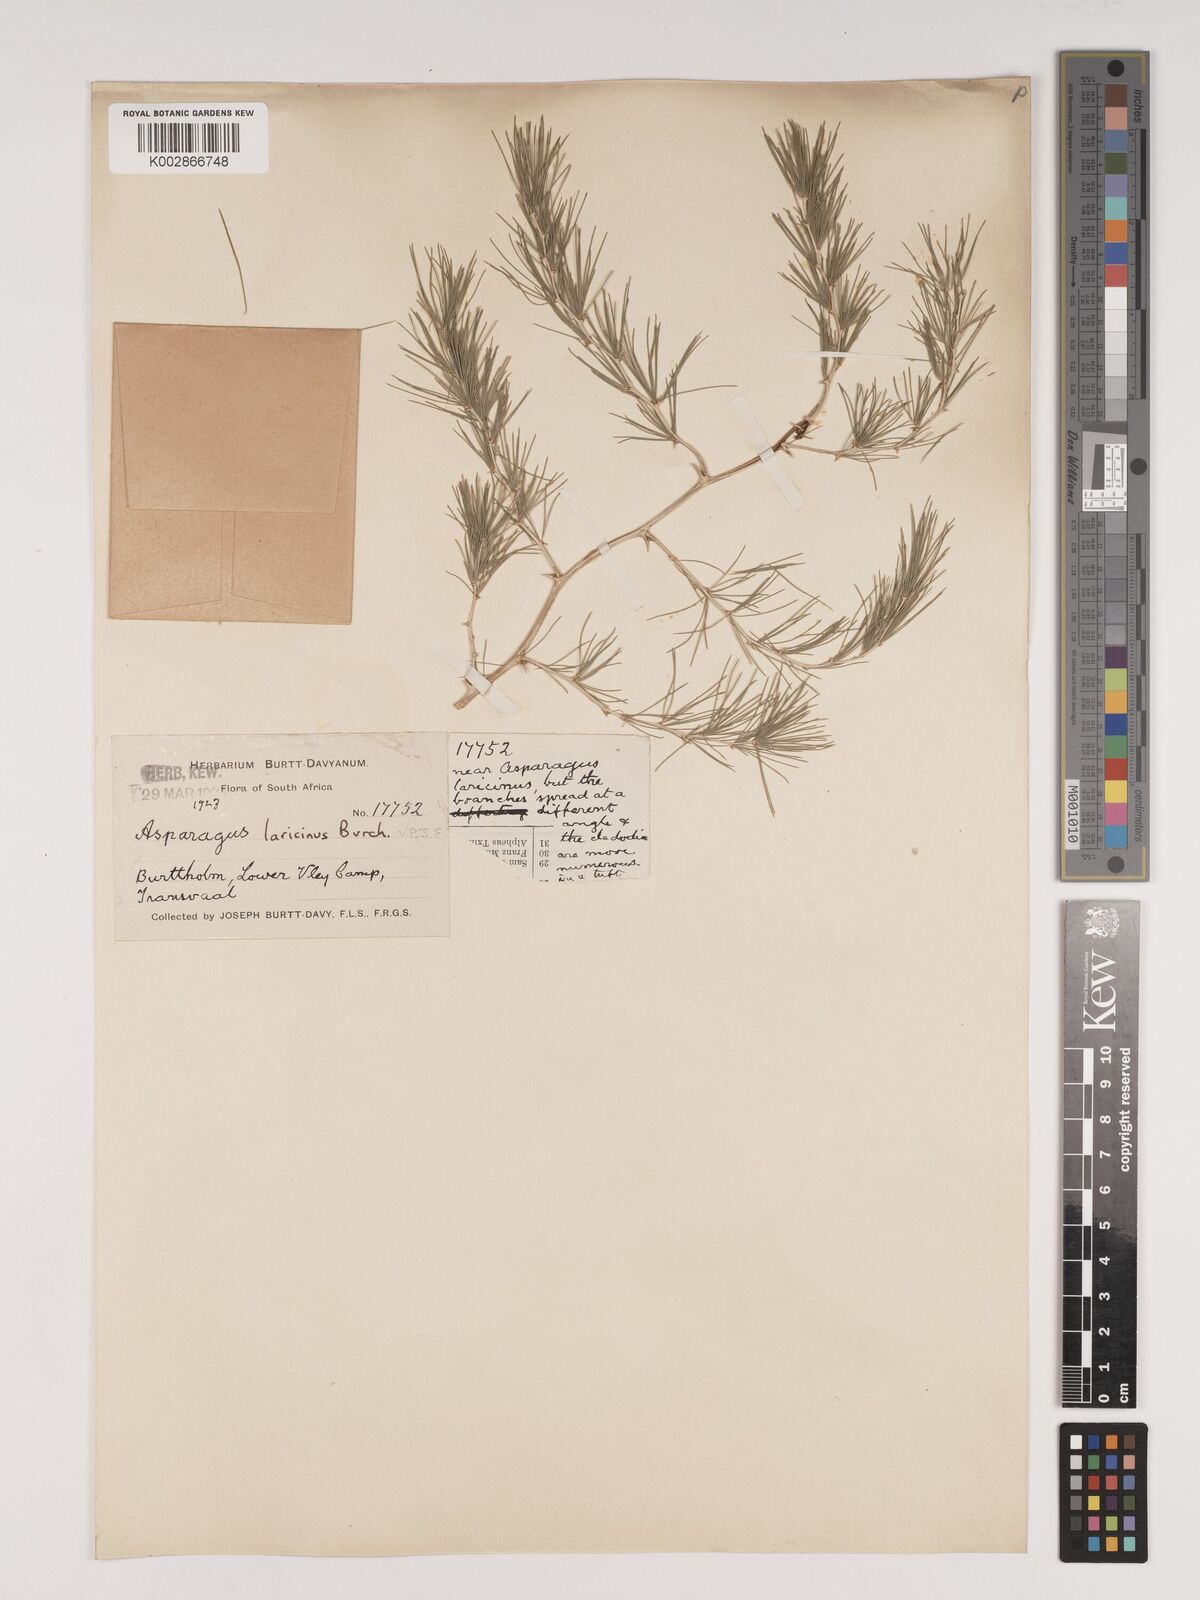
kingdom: Plantae
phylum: Tracheophyta
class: Liliopsida
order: Asparagales
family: Asparagaceae
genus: Asparagus
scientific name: Asparagus laricinus
